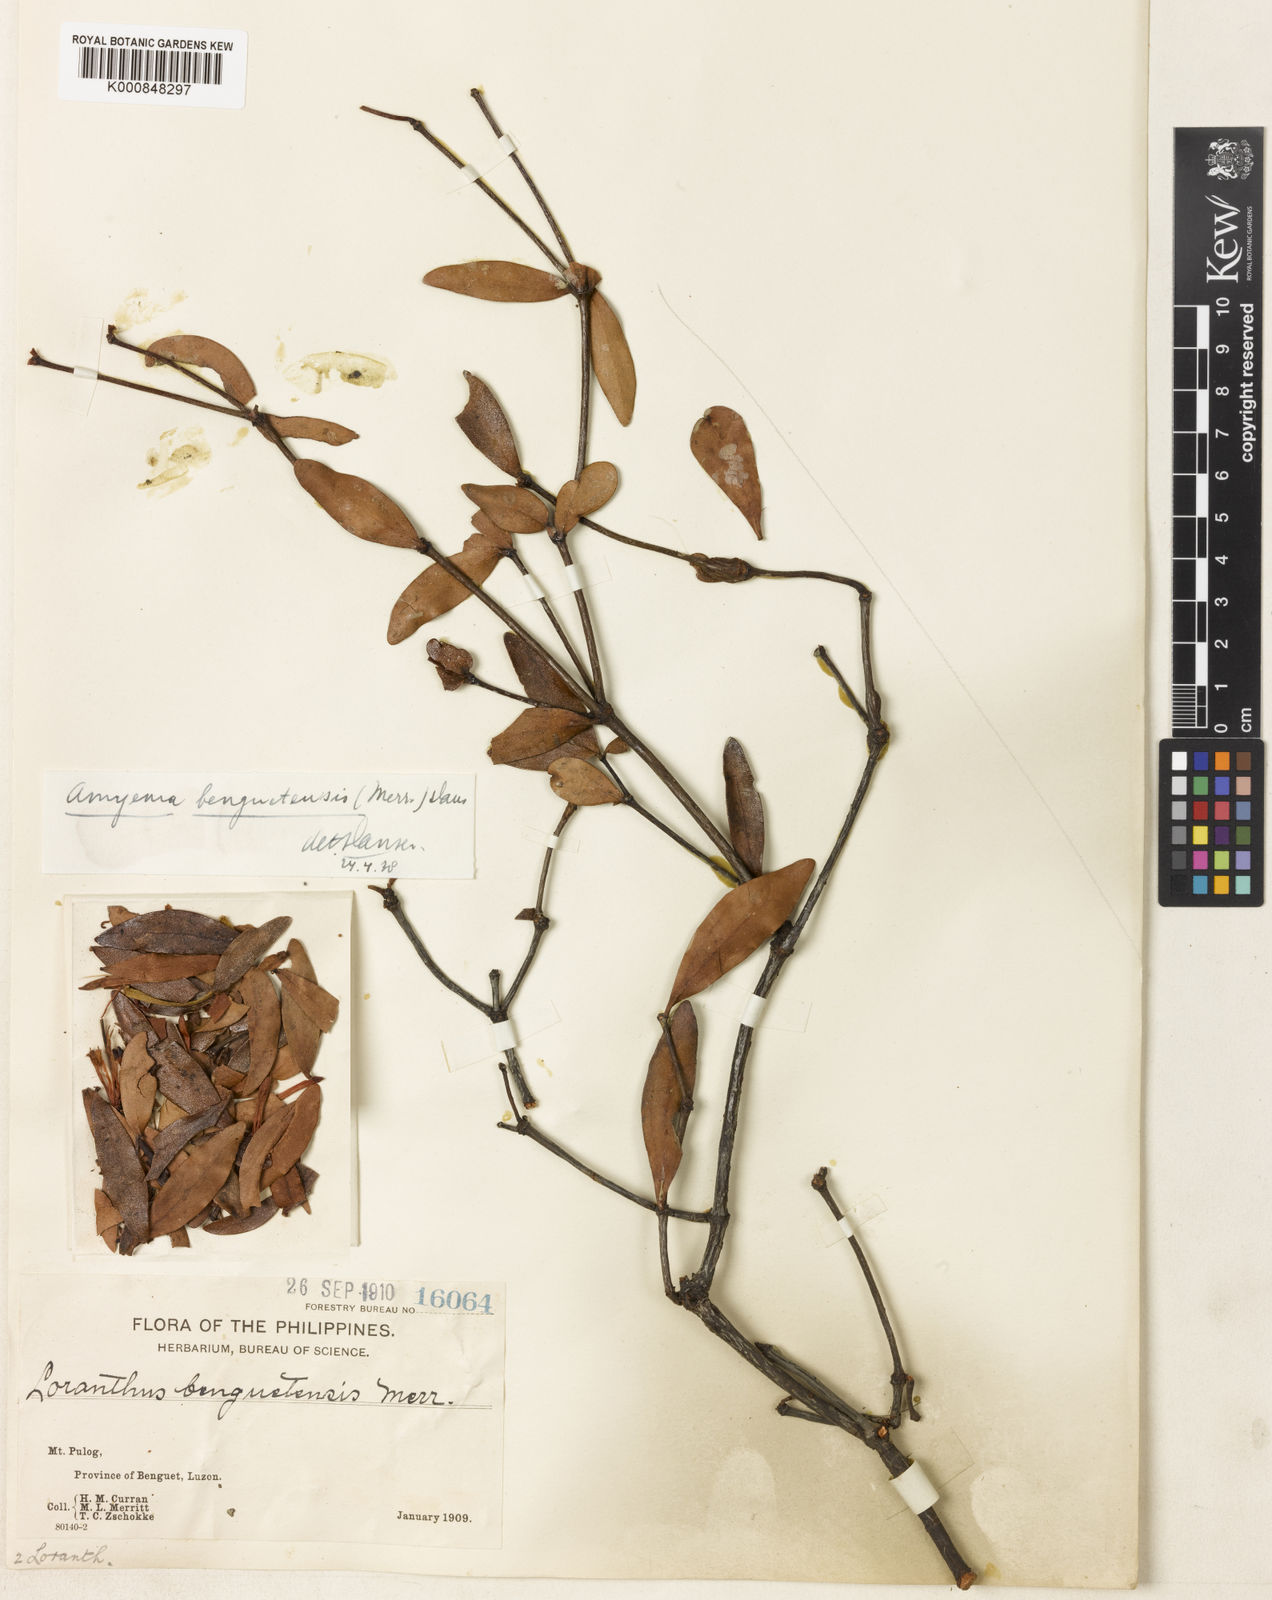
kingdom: Plantae
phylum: Tracheophyta
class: Magnoliopsida
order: Santalales
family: Loranthaceae
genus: Amyema
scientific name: Amyema benguetensis
